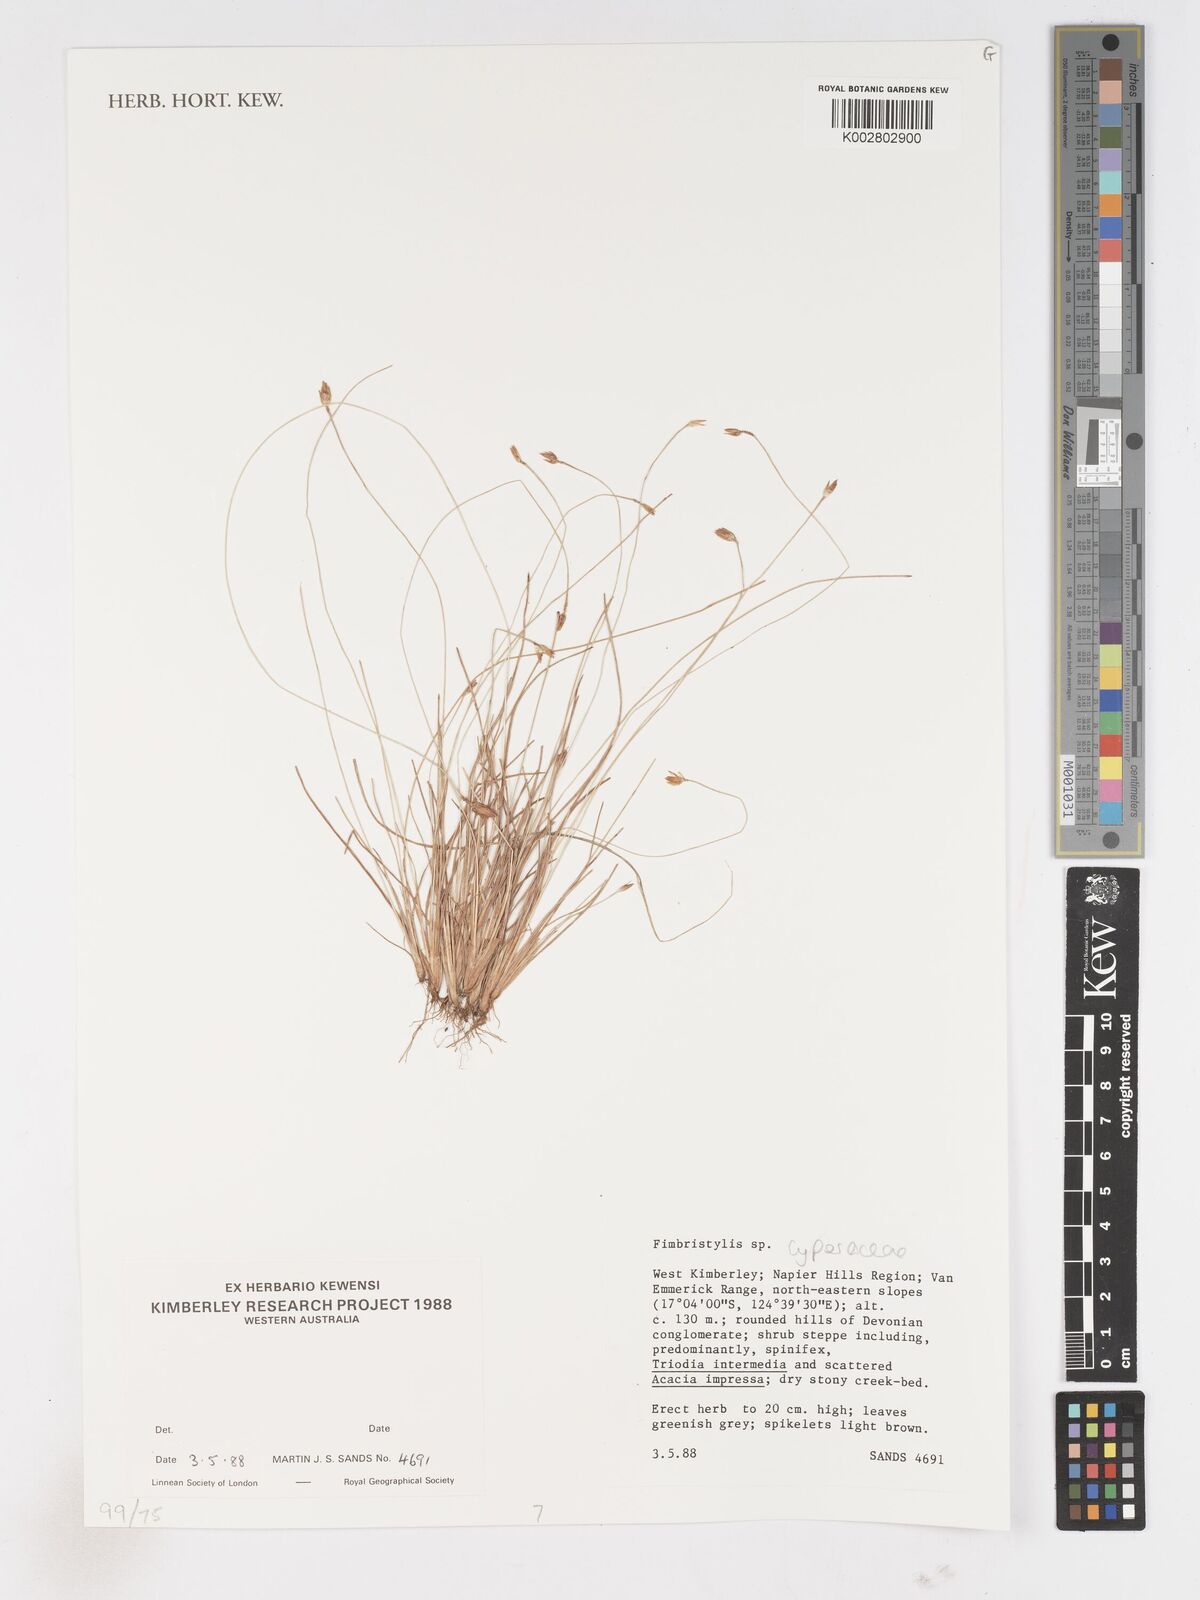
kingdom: Plantae
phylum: Tracheophyta
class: Liliopsida
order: Poales
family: Cyperaceae
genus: Fimbristylis
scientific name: Fimbristylis
